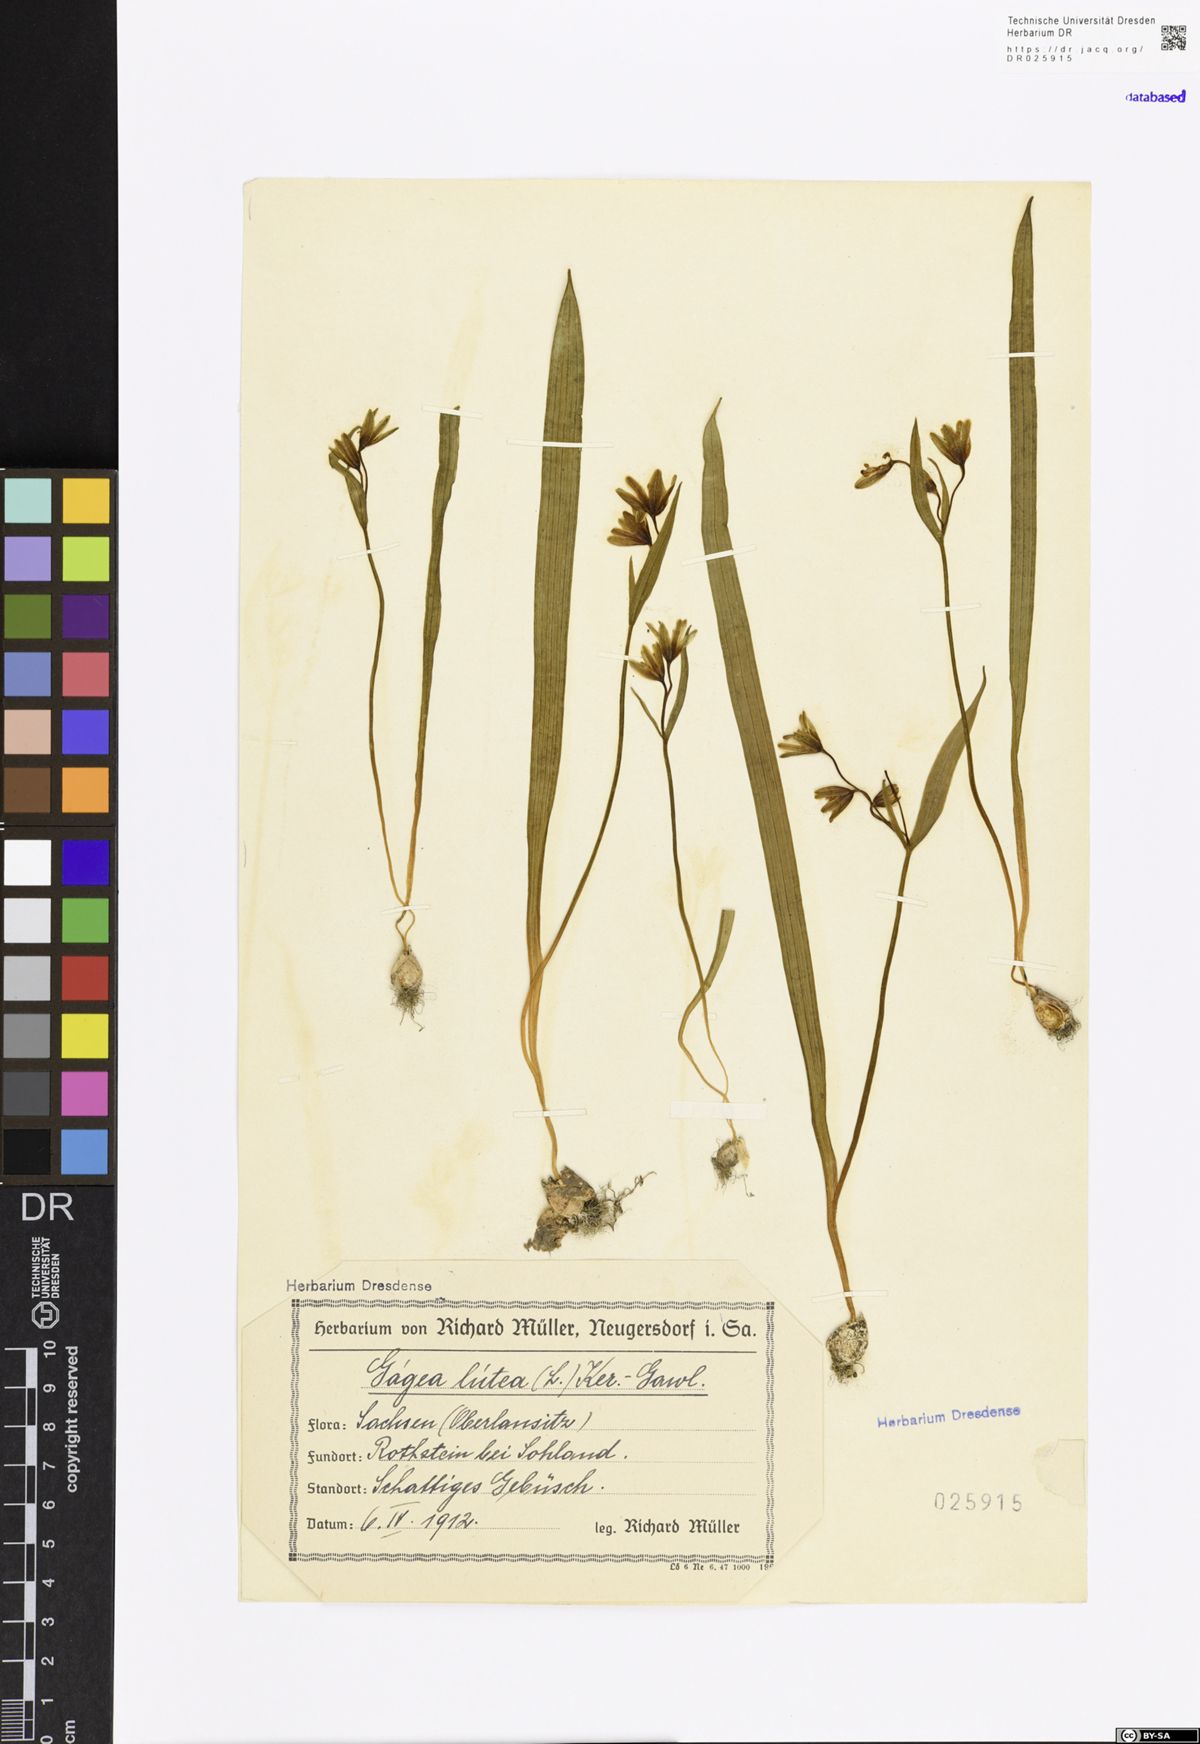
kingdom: Plantae
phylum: Tracheophyta
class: Liliopsida
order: Liliales
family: Liliaceae
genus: Gagea
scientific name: Gagea lutea
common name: Yellow star-of-bethlehem
